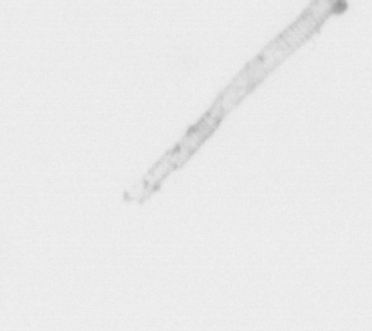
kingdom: Chromista
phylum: Ochrophyta
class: Bacillariophyceae
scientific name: Bacillariophyceae
